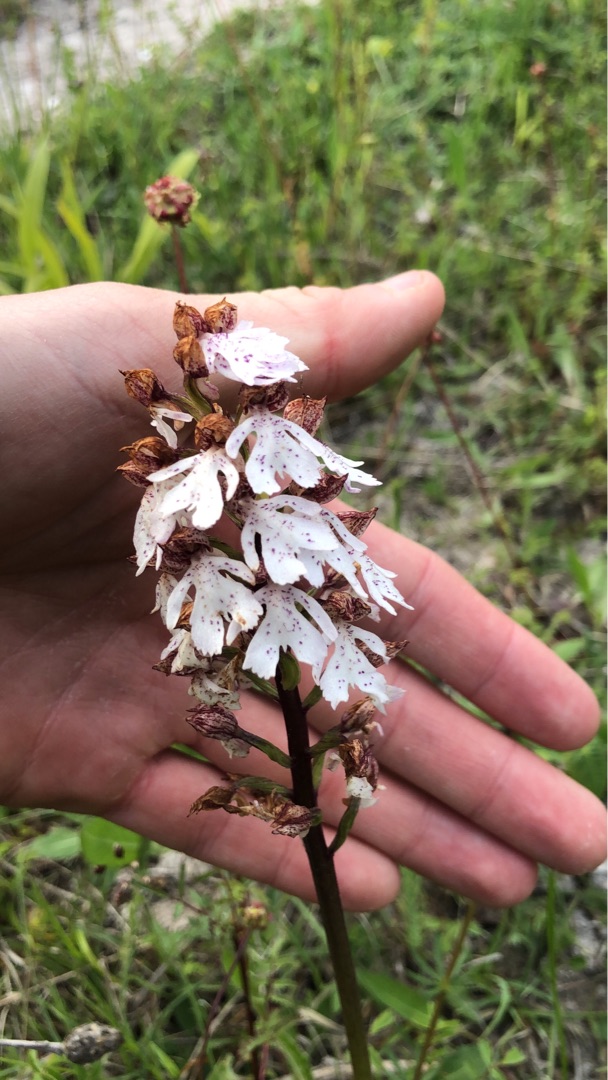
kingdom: Plantae
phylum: Tracheophyta
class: Liliopsida
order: Asparagales
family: Orchidaceae
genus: Orchis
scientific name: Orchis purpurea
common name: Stor gøgeurt
